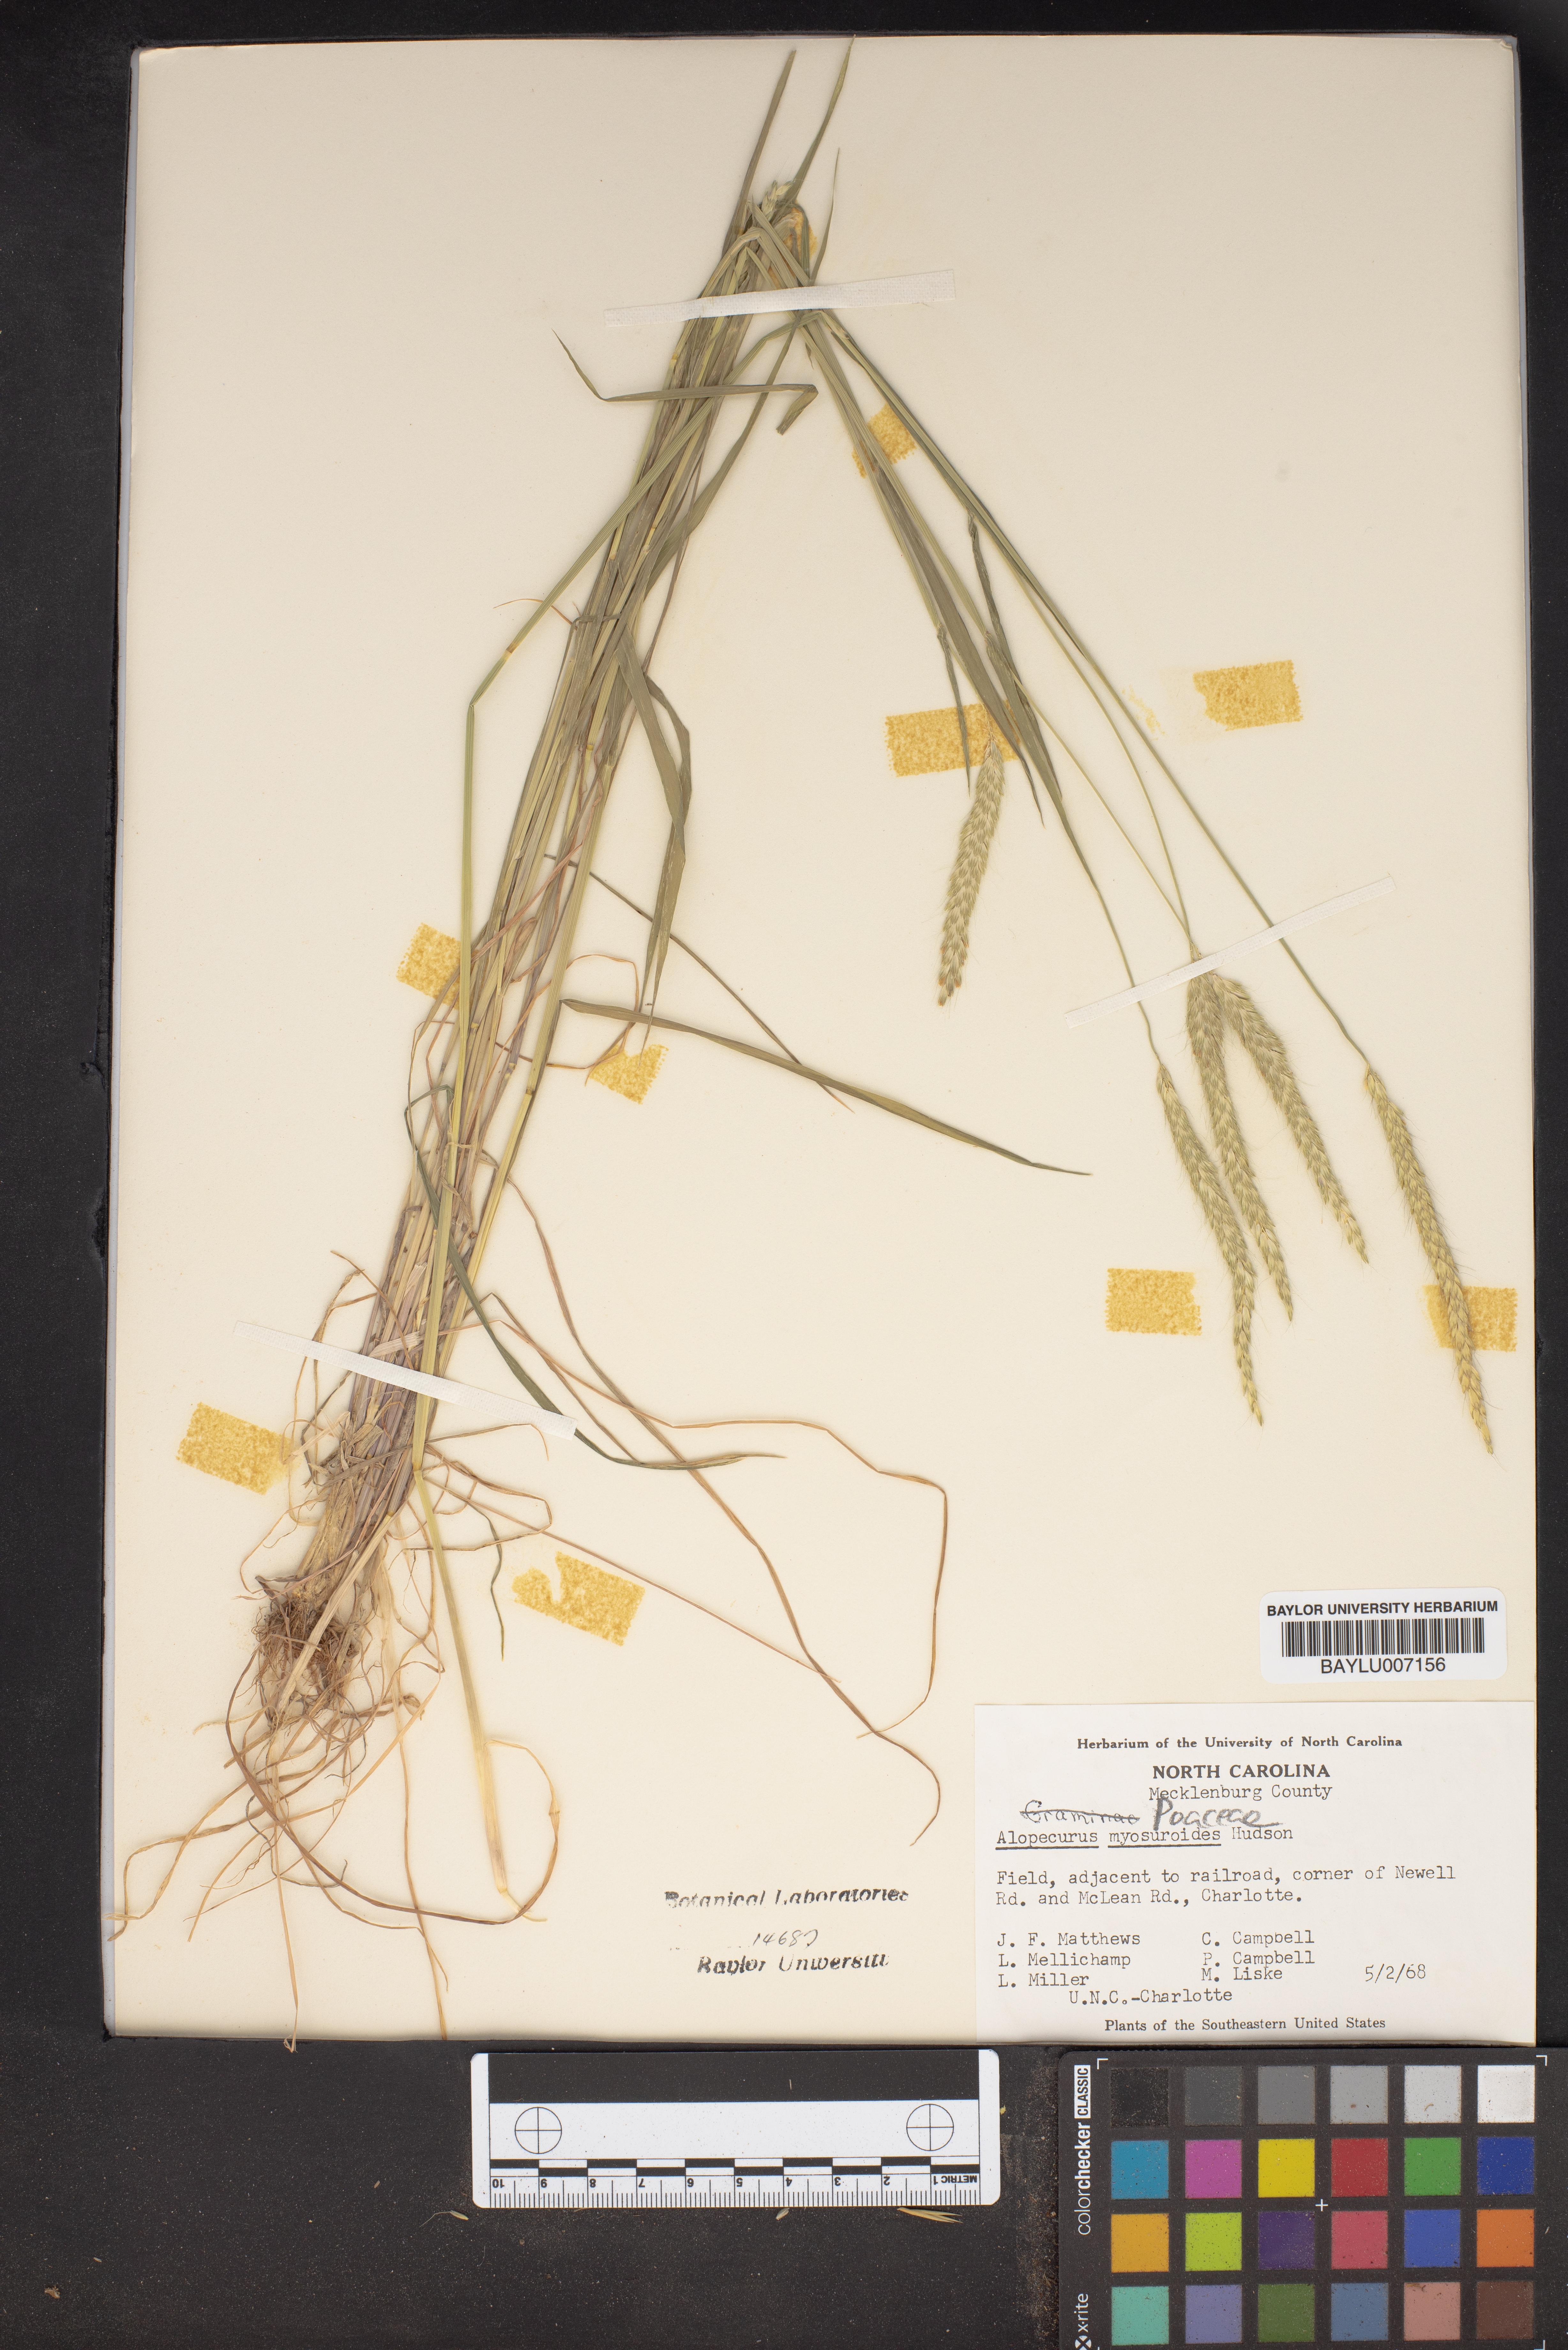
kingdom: Plantae
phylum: Tracheophyta
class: Liliopsida
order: Poales
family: Poaceae
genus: Alopecurus
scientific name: Alopecurus myosuroides
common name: Black-grass
